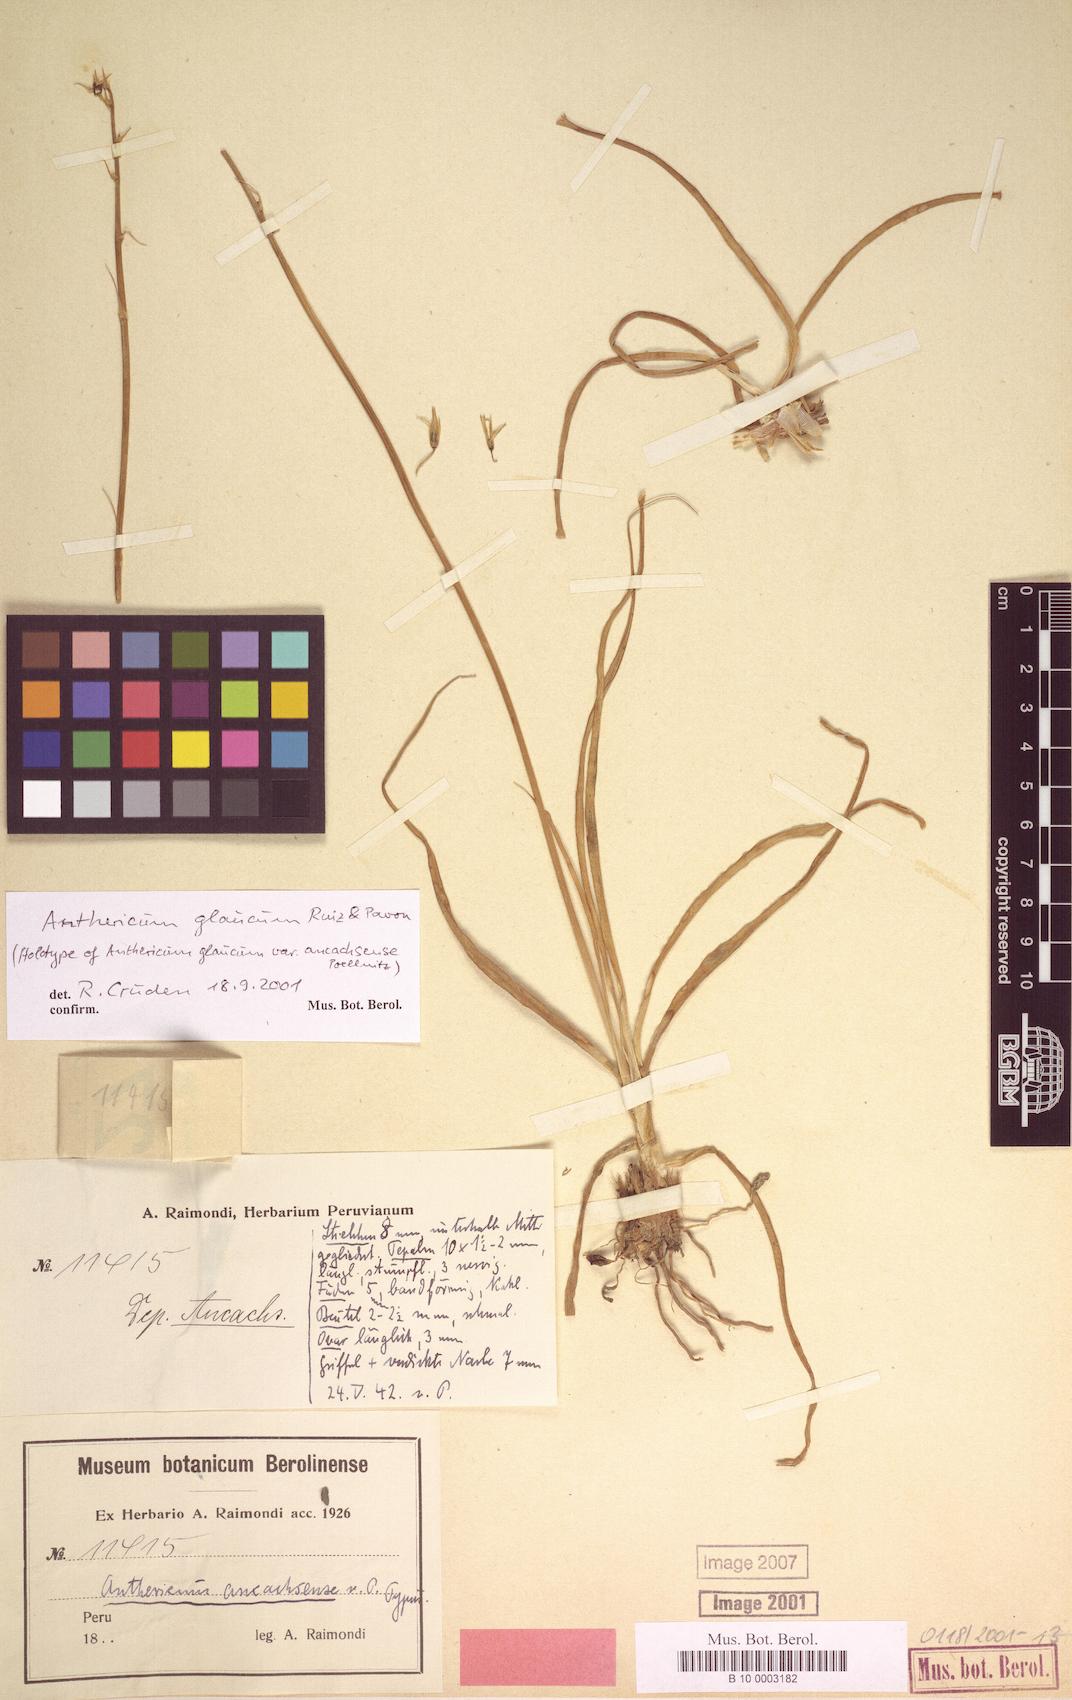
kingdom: Plantae
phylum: Tracheophyta
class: Liliopsida
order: Asparagales
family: Asparagaceae
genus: Trihesperus
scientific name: Trihesperus glaucus
